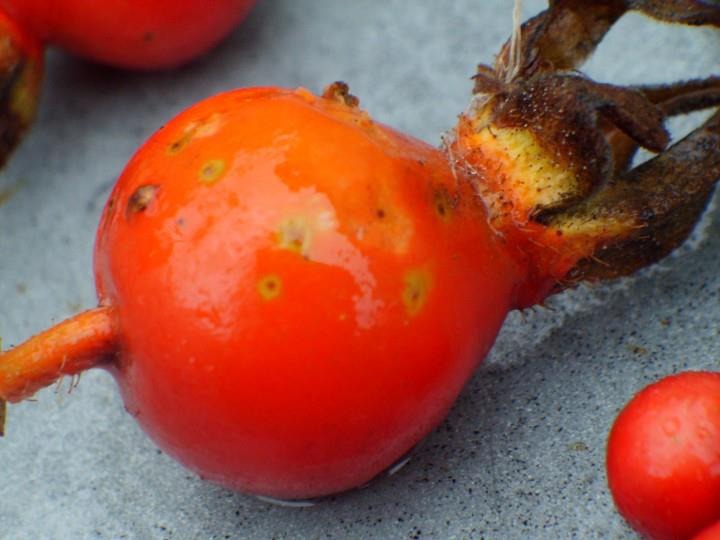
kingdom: Plantae
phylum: Tracheophyta
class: Magnoliopsida
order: Rosales
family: Rosaceae
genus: Rosa
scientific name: Rosa rugosa
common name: Rynket rose
